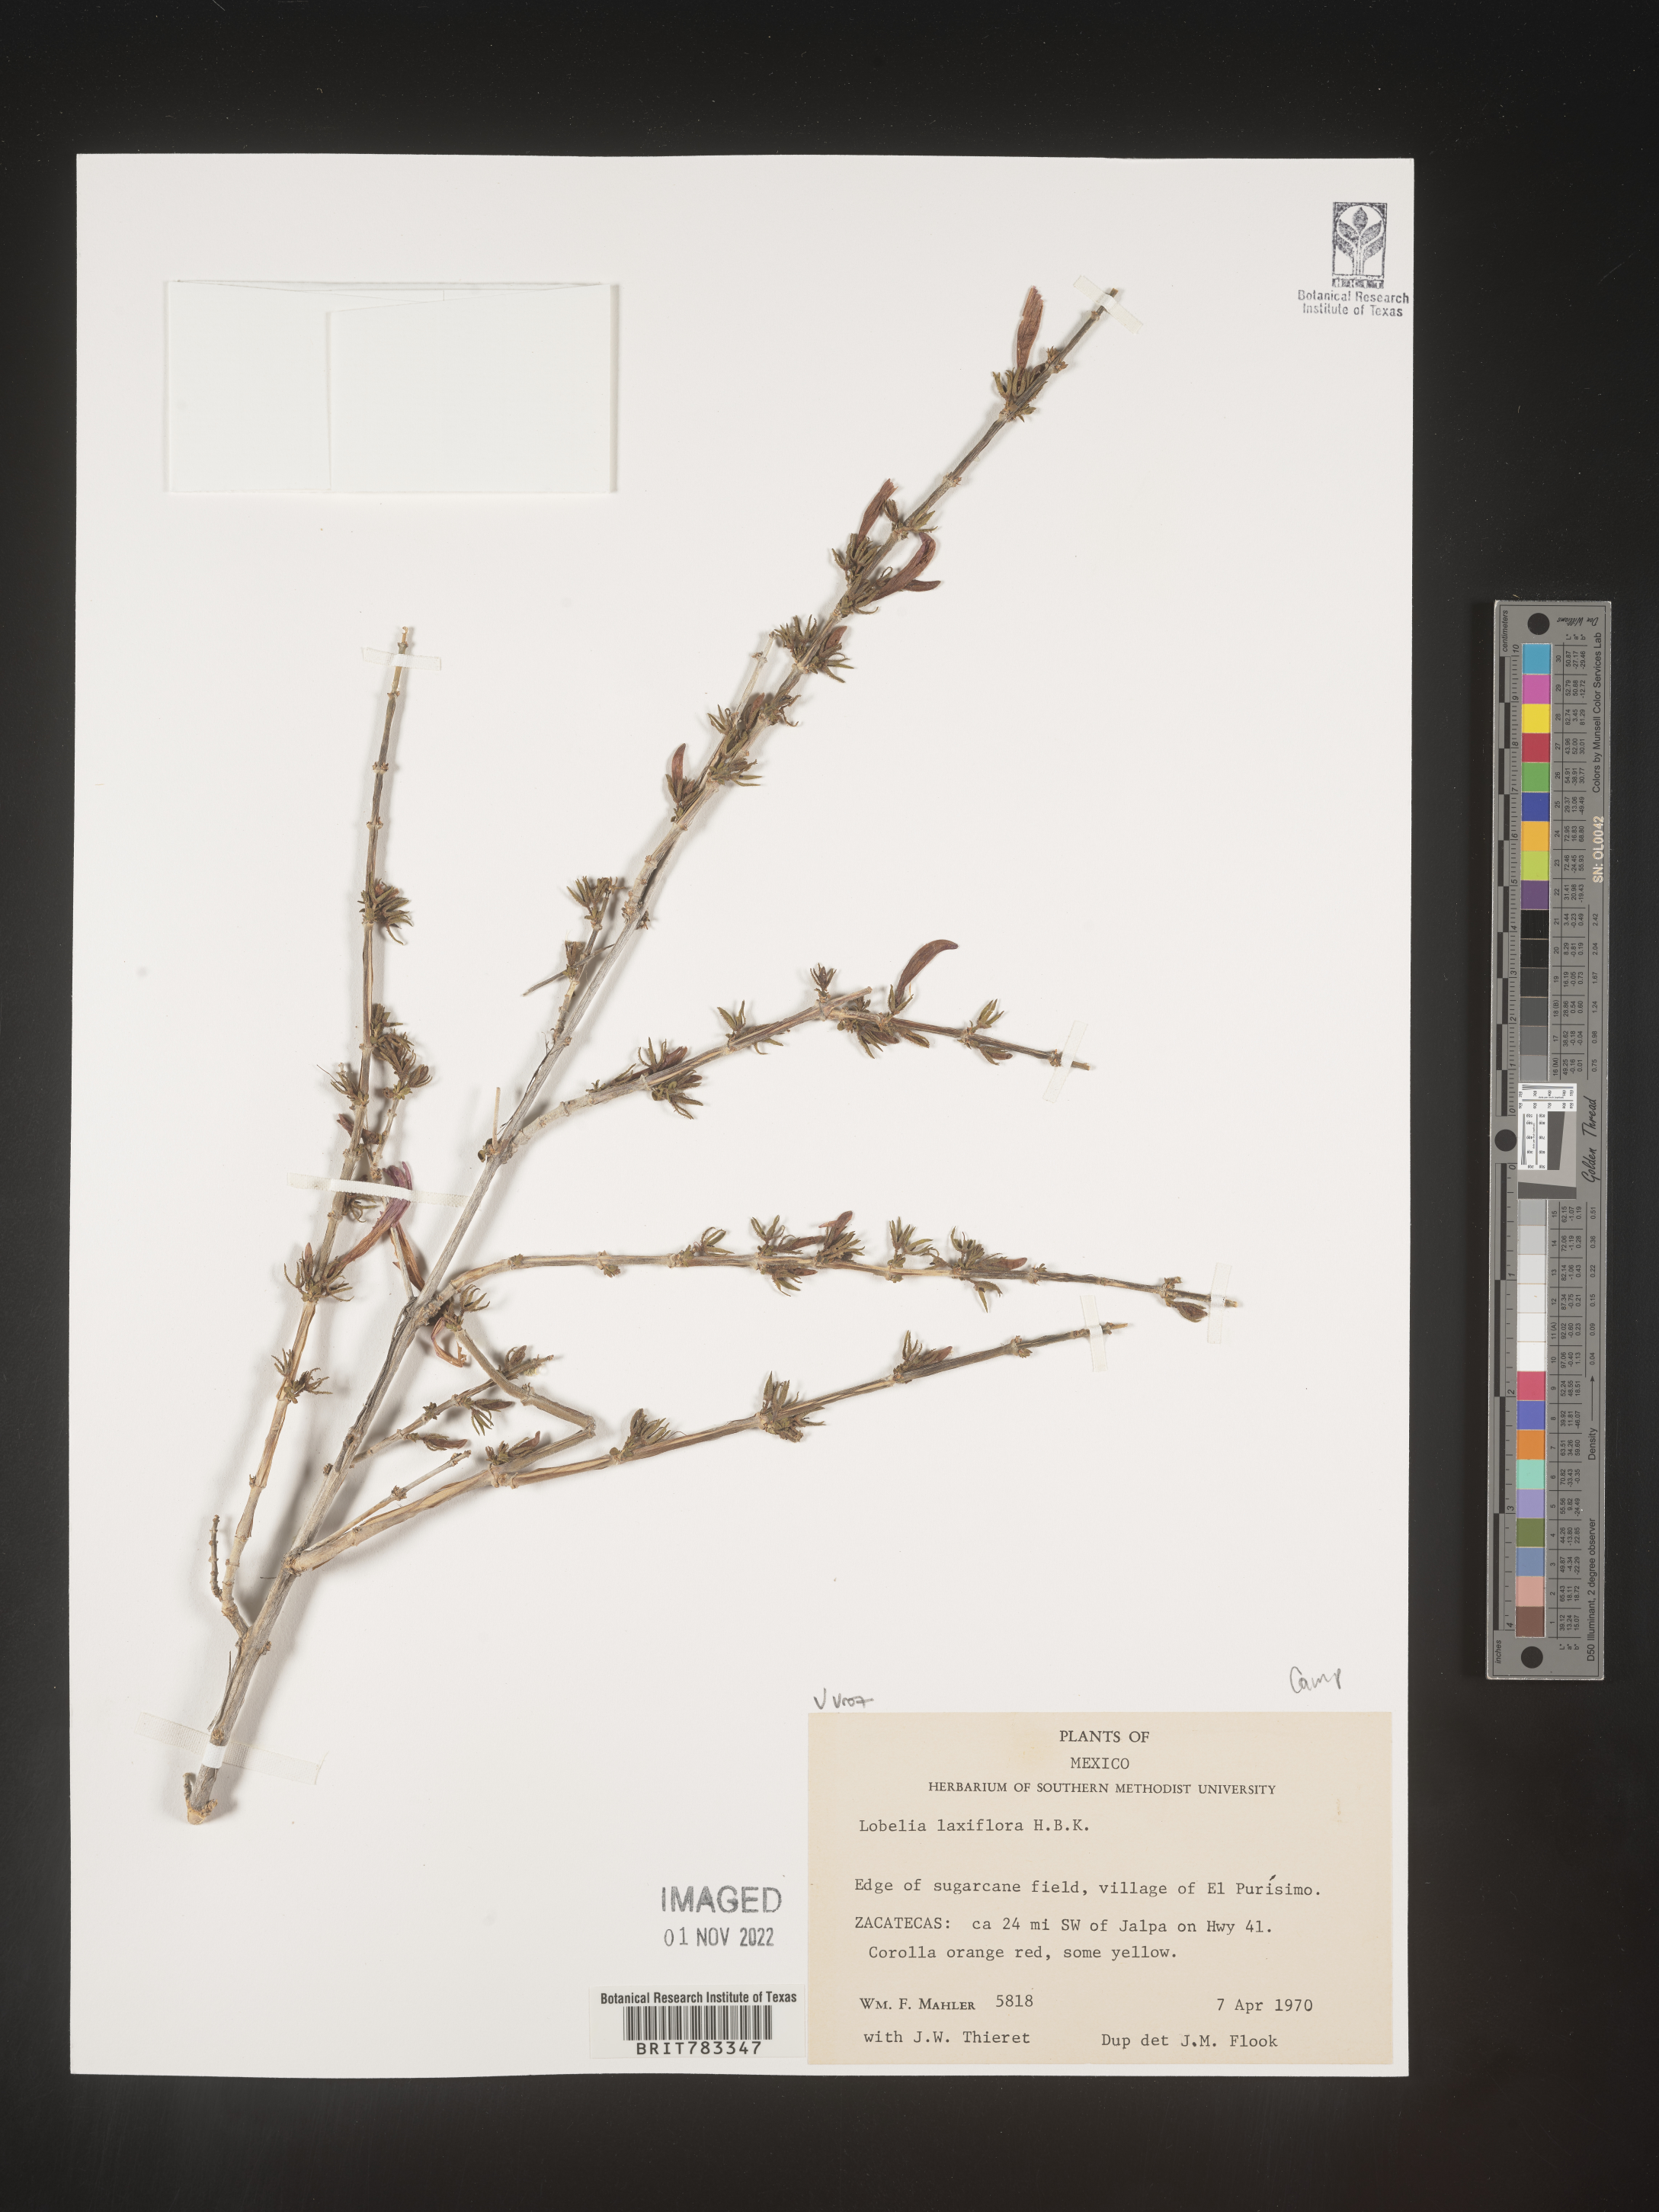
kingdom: Plantae
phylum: Tracheophyta
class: Magnoliopsida
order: Asterales
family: Campanulaceae
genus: Lobelia
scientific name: Lobelia
